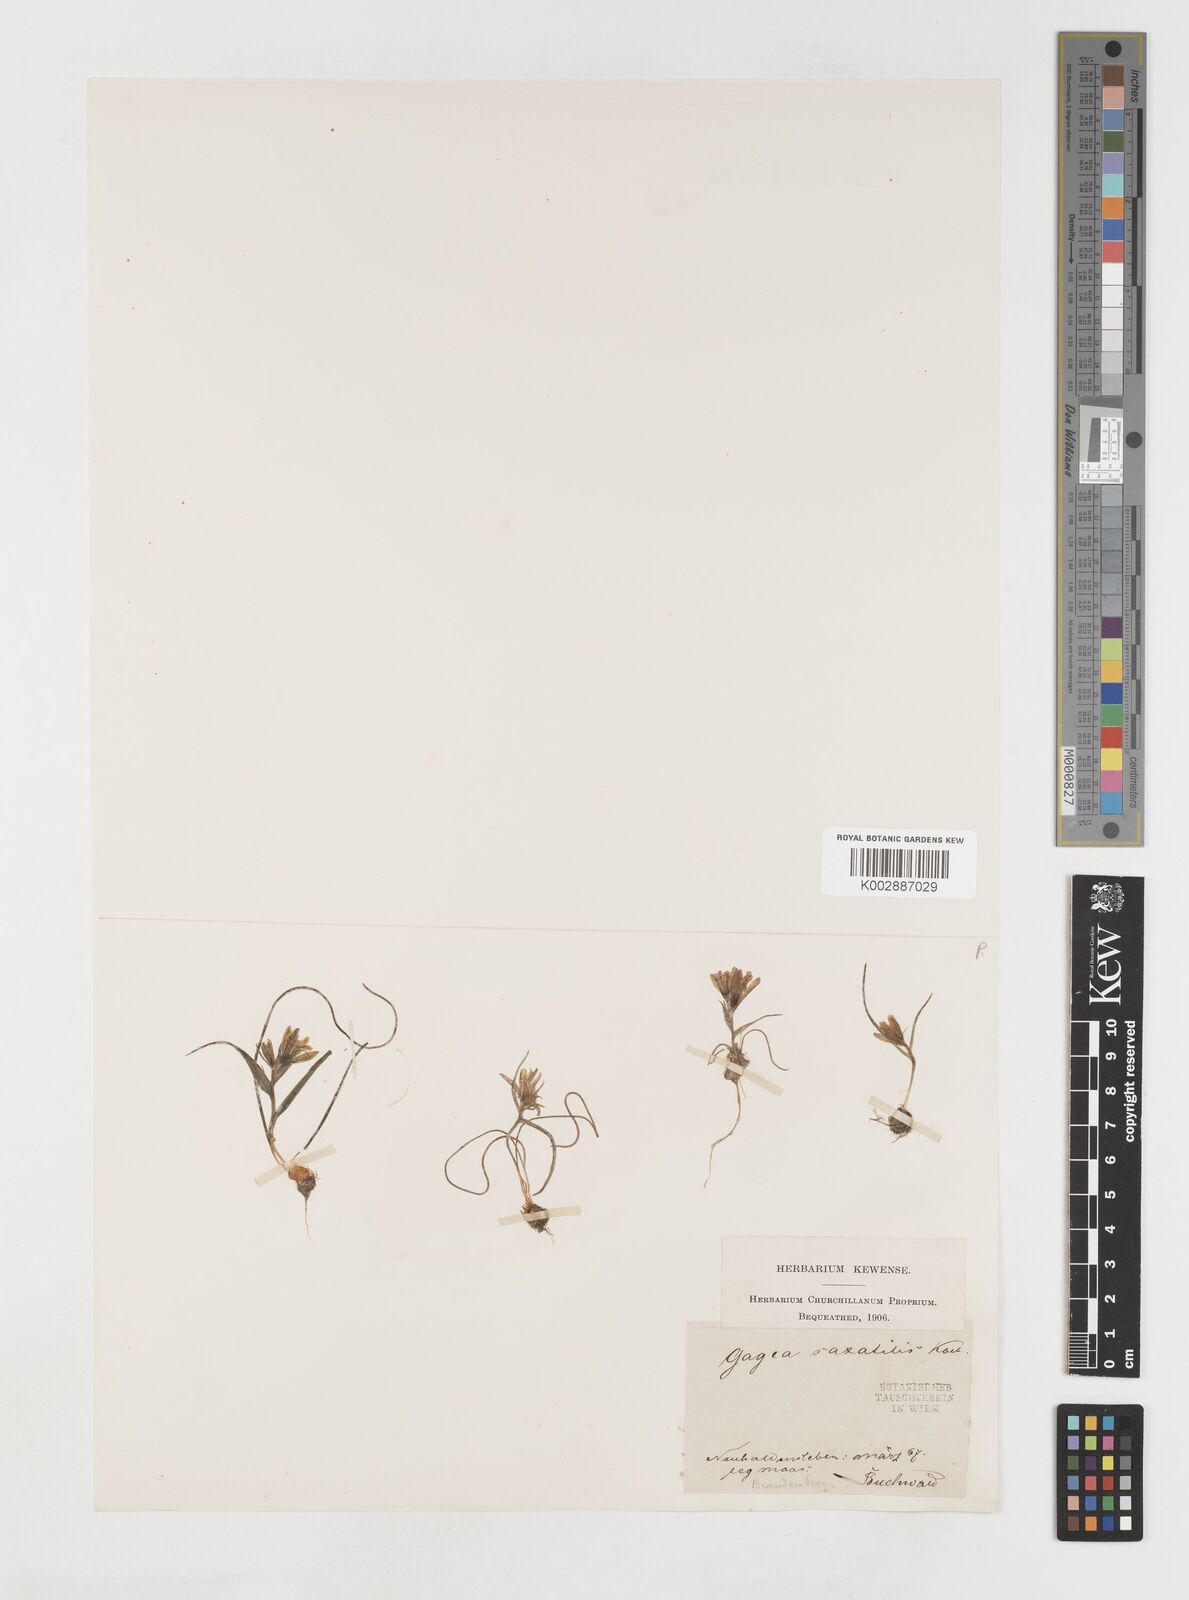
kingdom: Plantae
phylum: Tracheophyta
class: Liliopsida
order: Liliales
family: Liliaceae
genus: Gagea
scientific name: Gagea bohemica
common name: Early star-of-bethlehem
